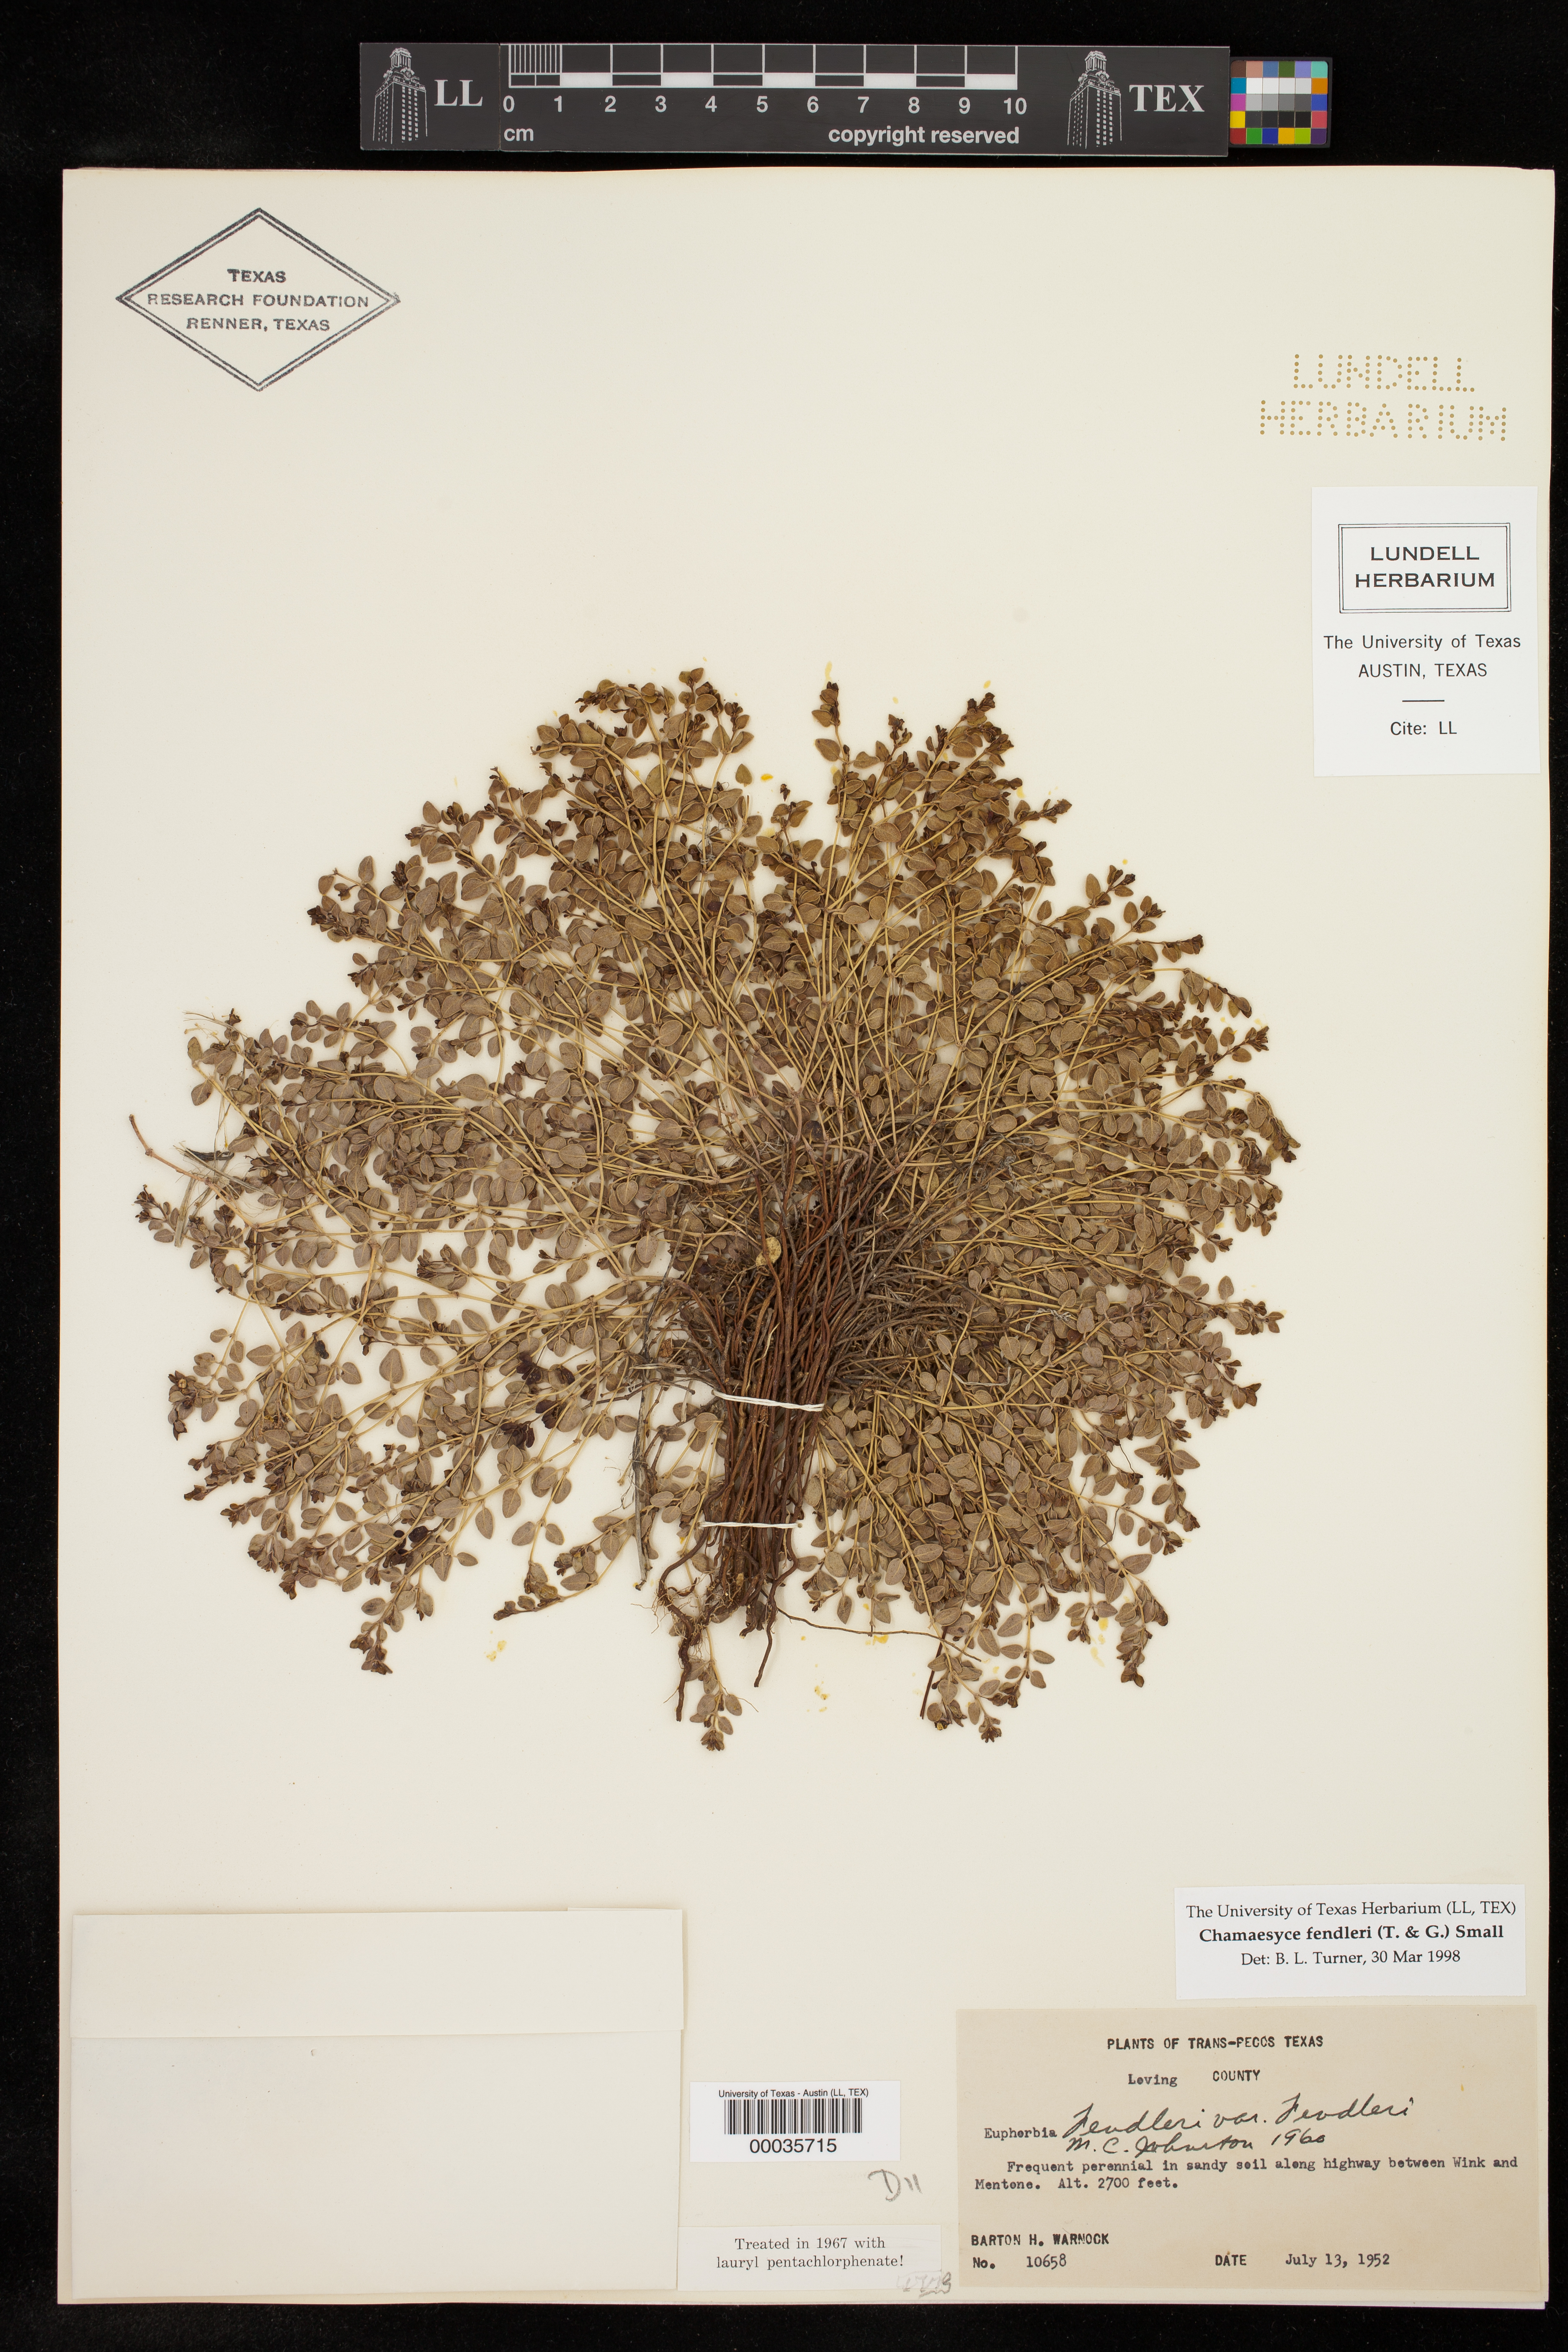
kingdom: Plantae
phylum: Tracheophyta
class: Magnoliopsida
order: Malpighiales
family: Euphorbiaceae
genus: Euphorbia
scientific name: Euphorbia fendleri
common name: Fendler's euphorbia
